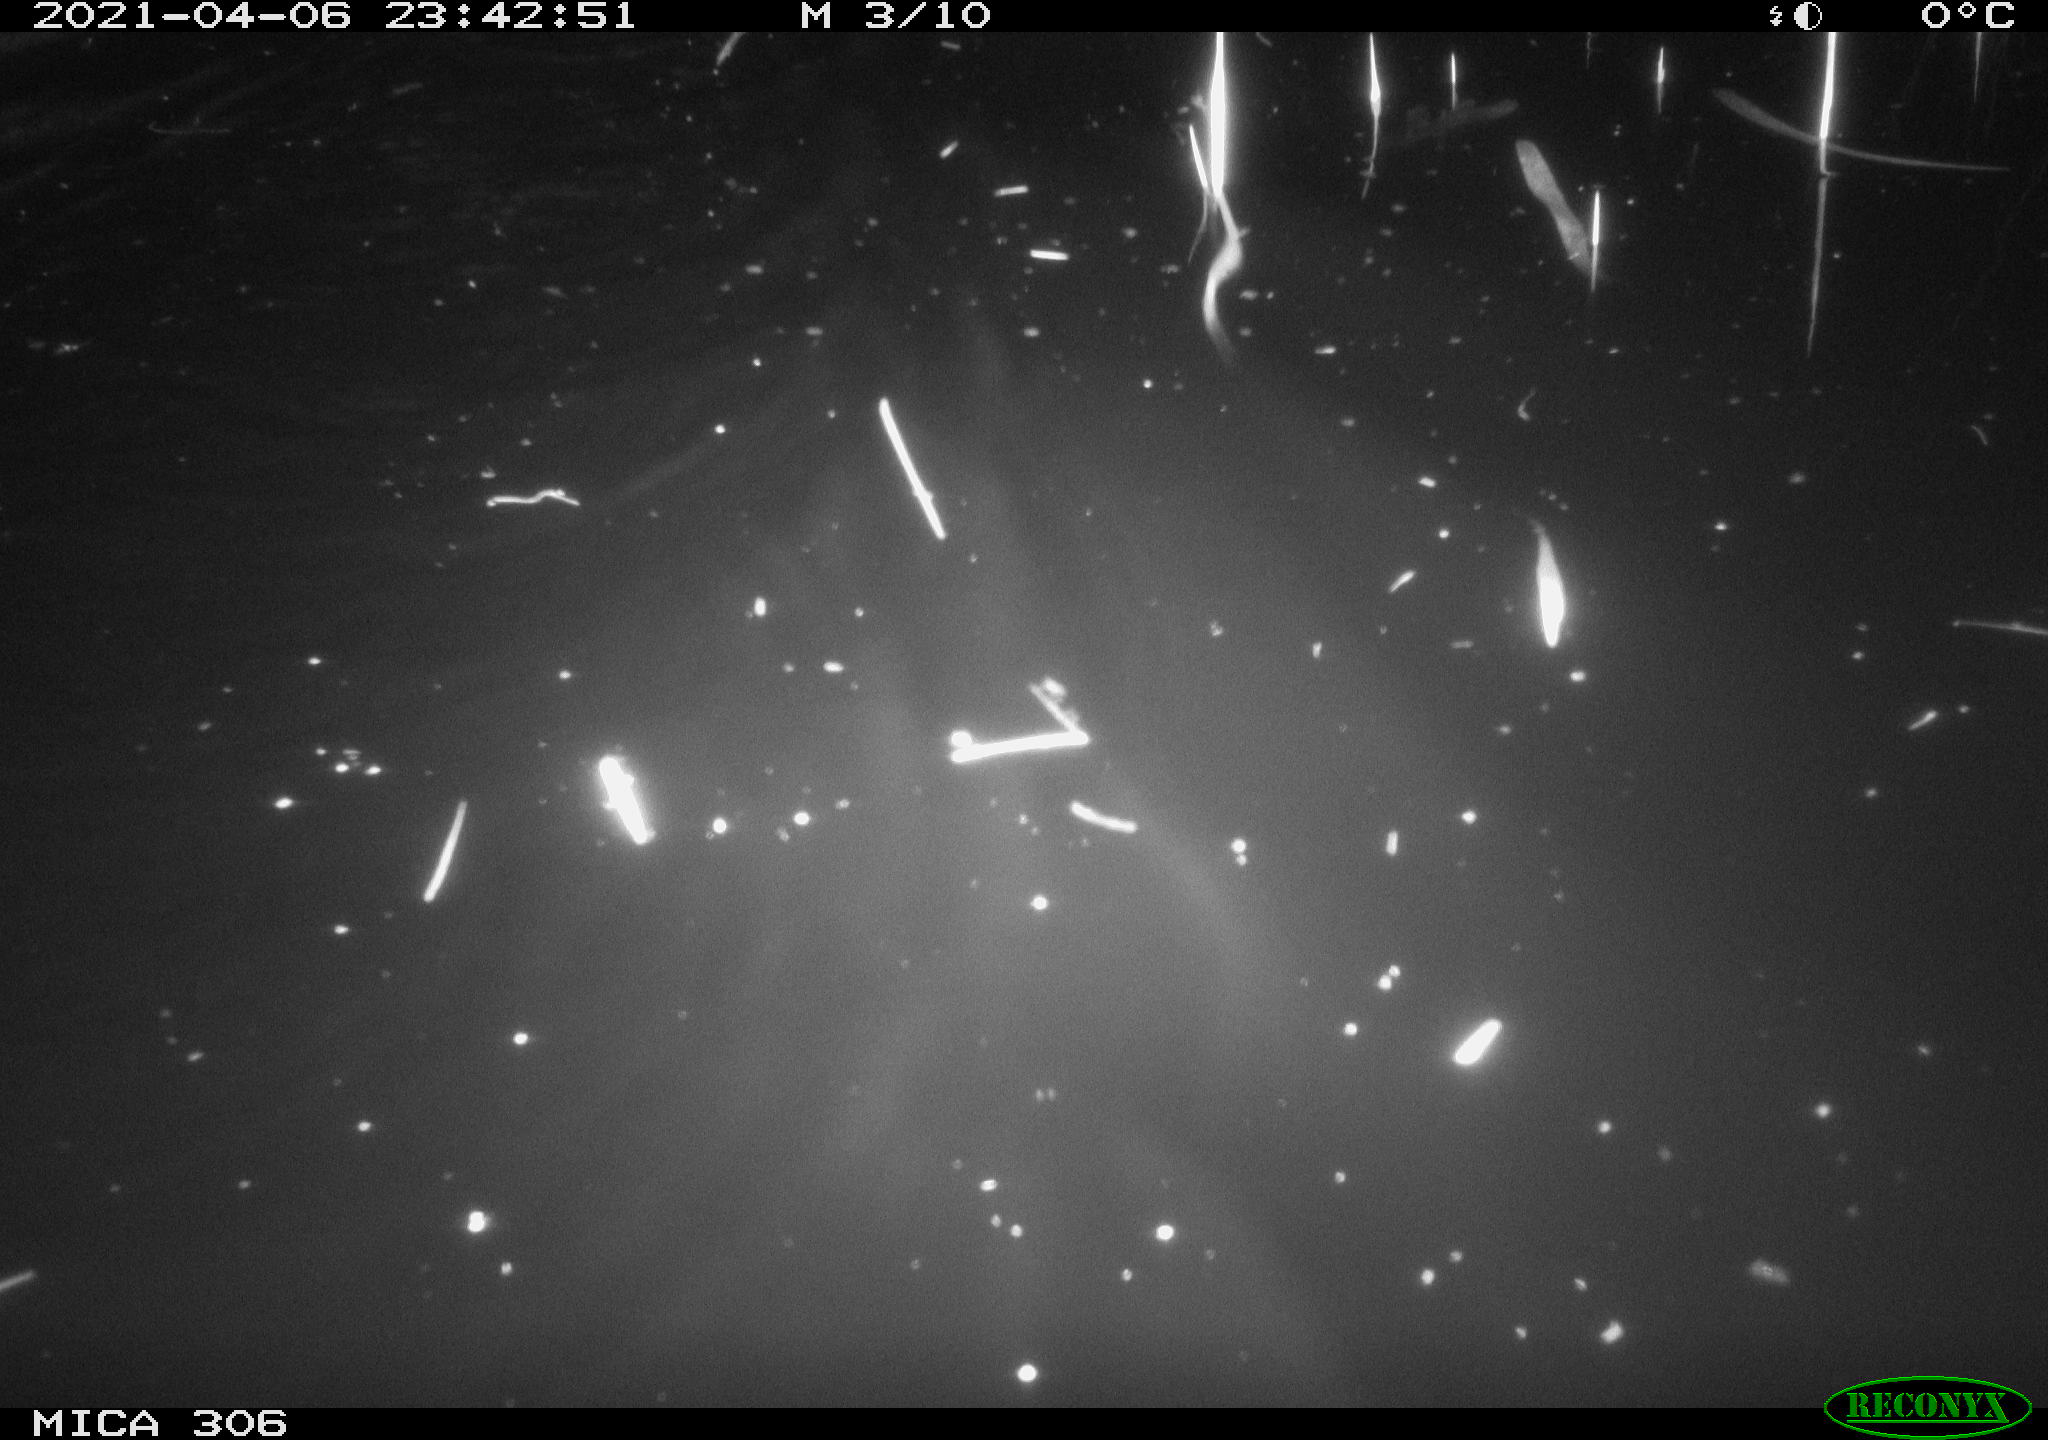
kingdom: Animalia
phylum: Chordata
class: Mammalia
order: Rodentia
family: Cricetidae
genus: Ondatra
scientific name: Ondatra zibethicus
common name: Muskrat
